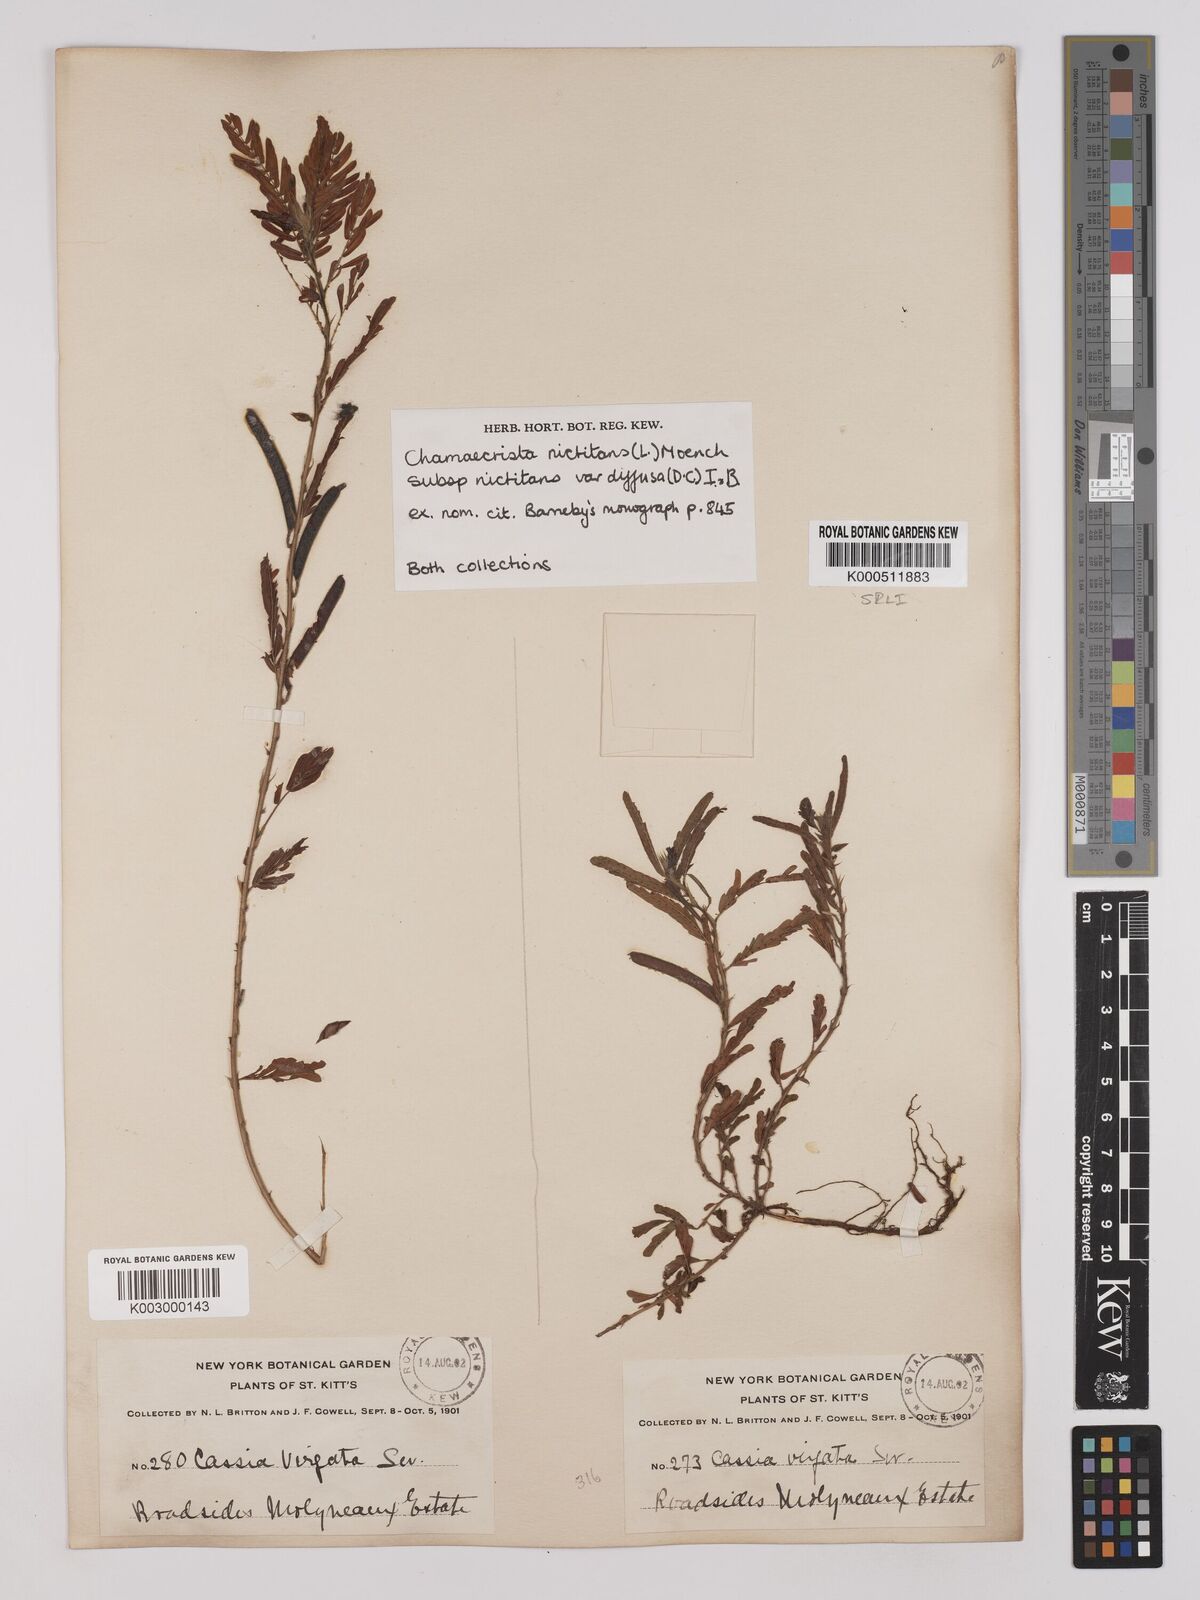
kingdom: Plantae
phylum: Tracheophyta
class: Magnoliopsida
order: Fabales
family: Fabaceae
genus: Chamaecrista
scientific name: Chamaecrista
